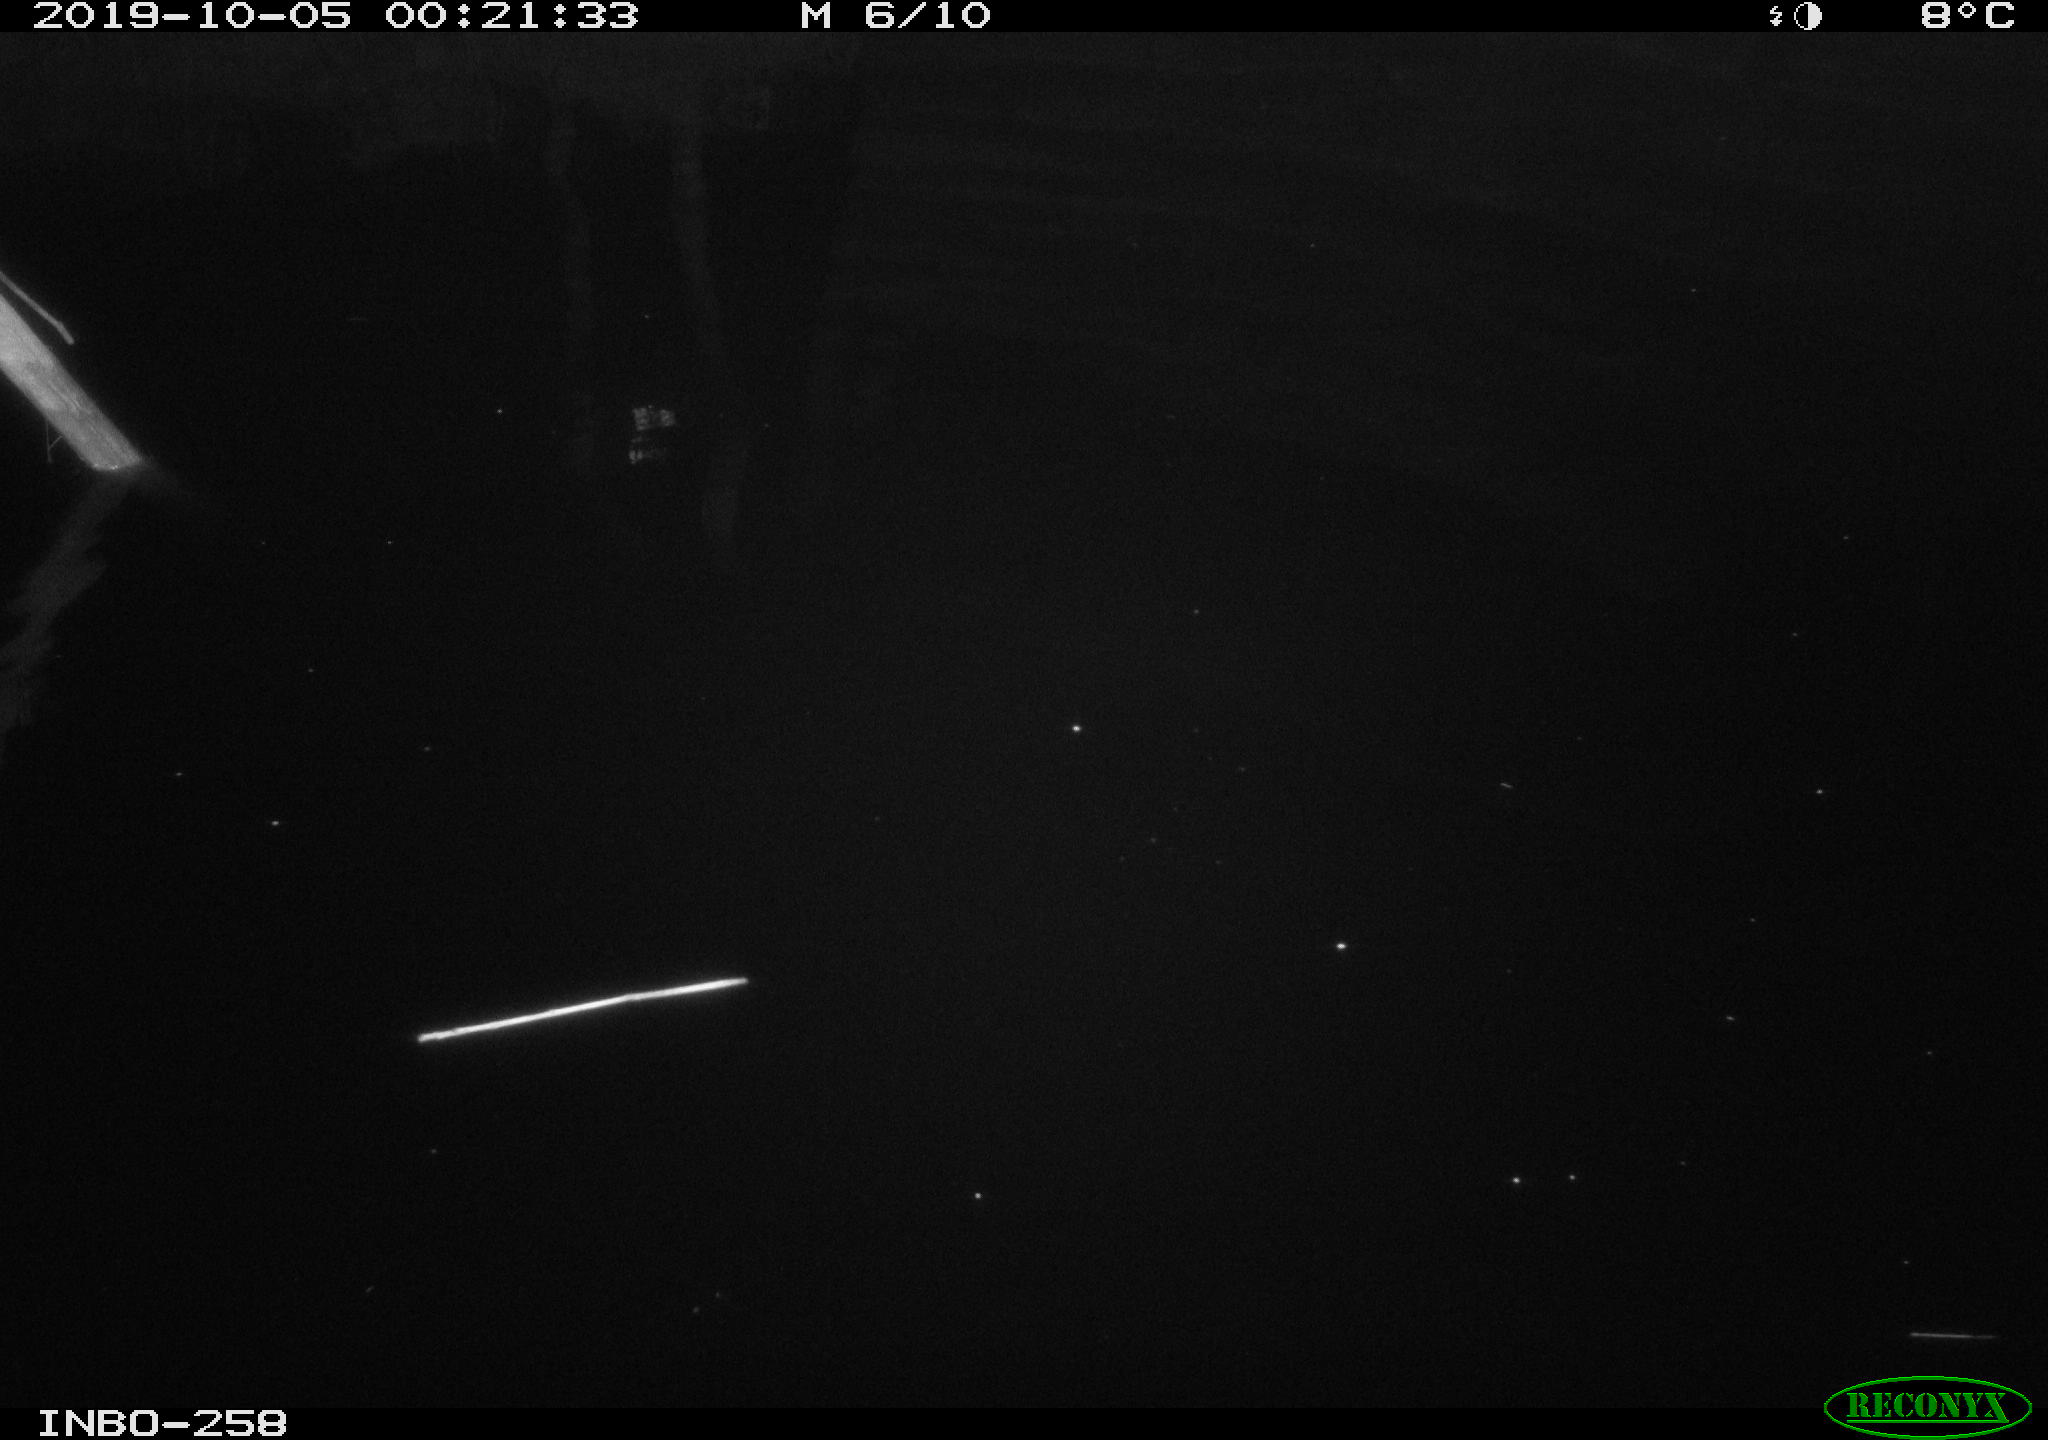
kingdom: Animalia
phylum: Chordata
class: Aves
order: Anseriformes
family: Anatidae
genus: Anas
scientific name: Anas platyrhynchos
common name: Mallard
